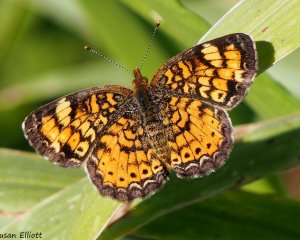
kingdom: Animalia
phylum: Arthropoda
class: Insecta
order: Lepidoptera
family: Nymphalidae
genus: Phyciodes
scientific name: Phyciodes tharos
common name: Pearl Crescent
